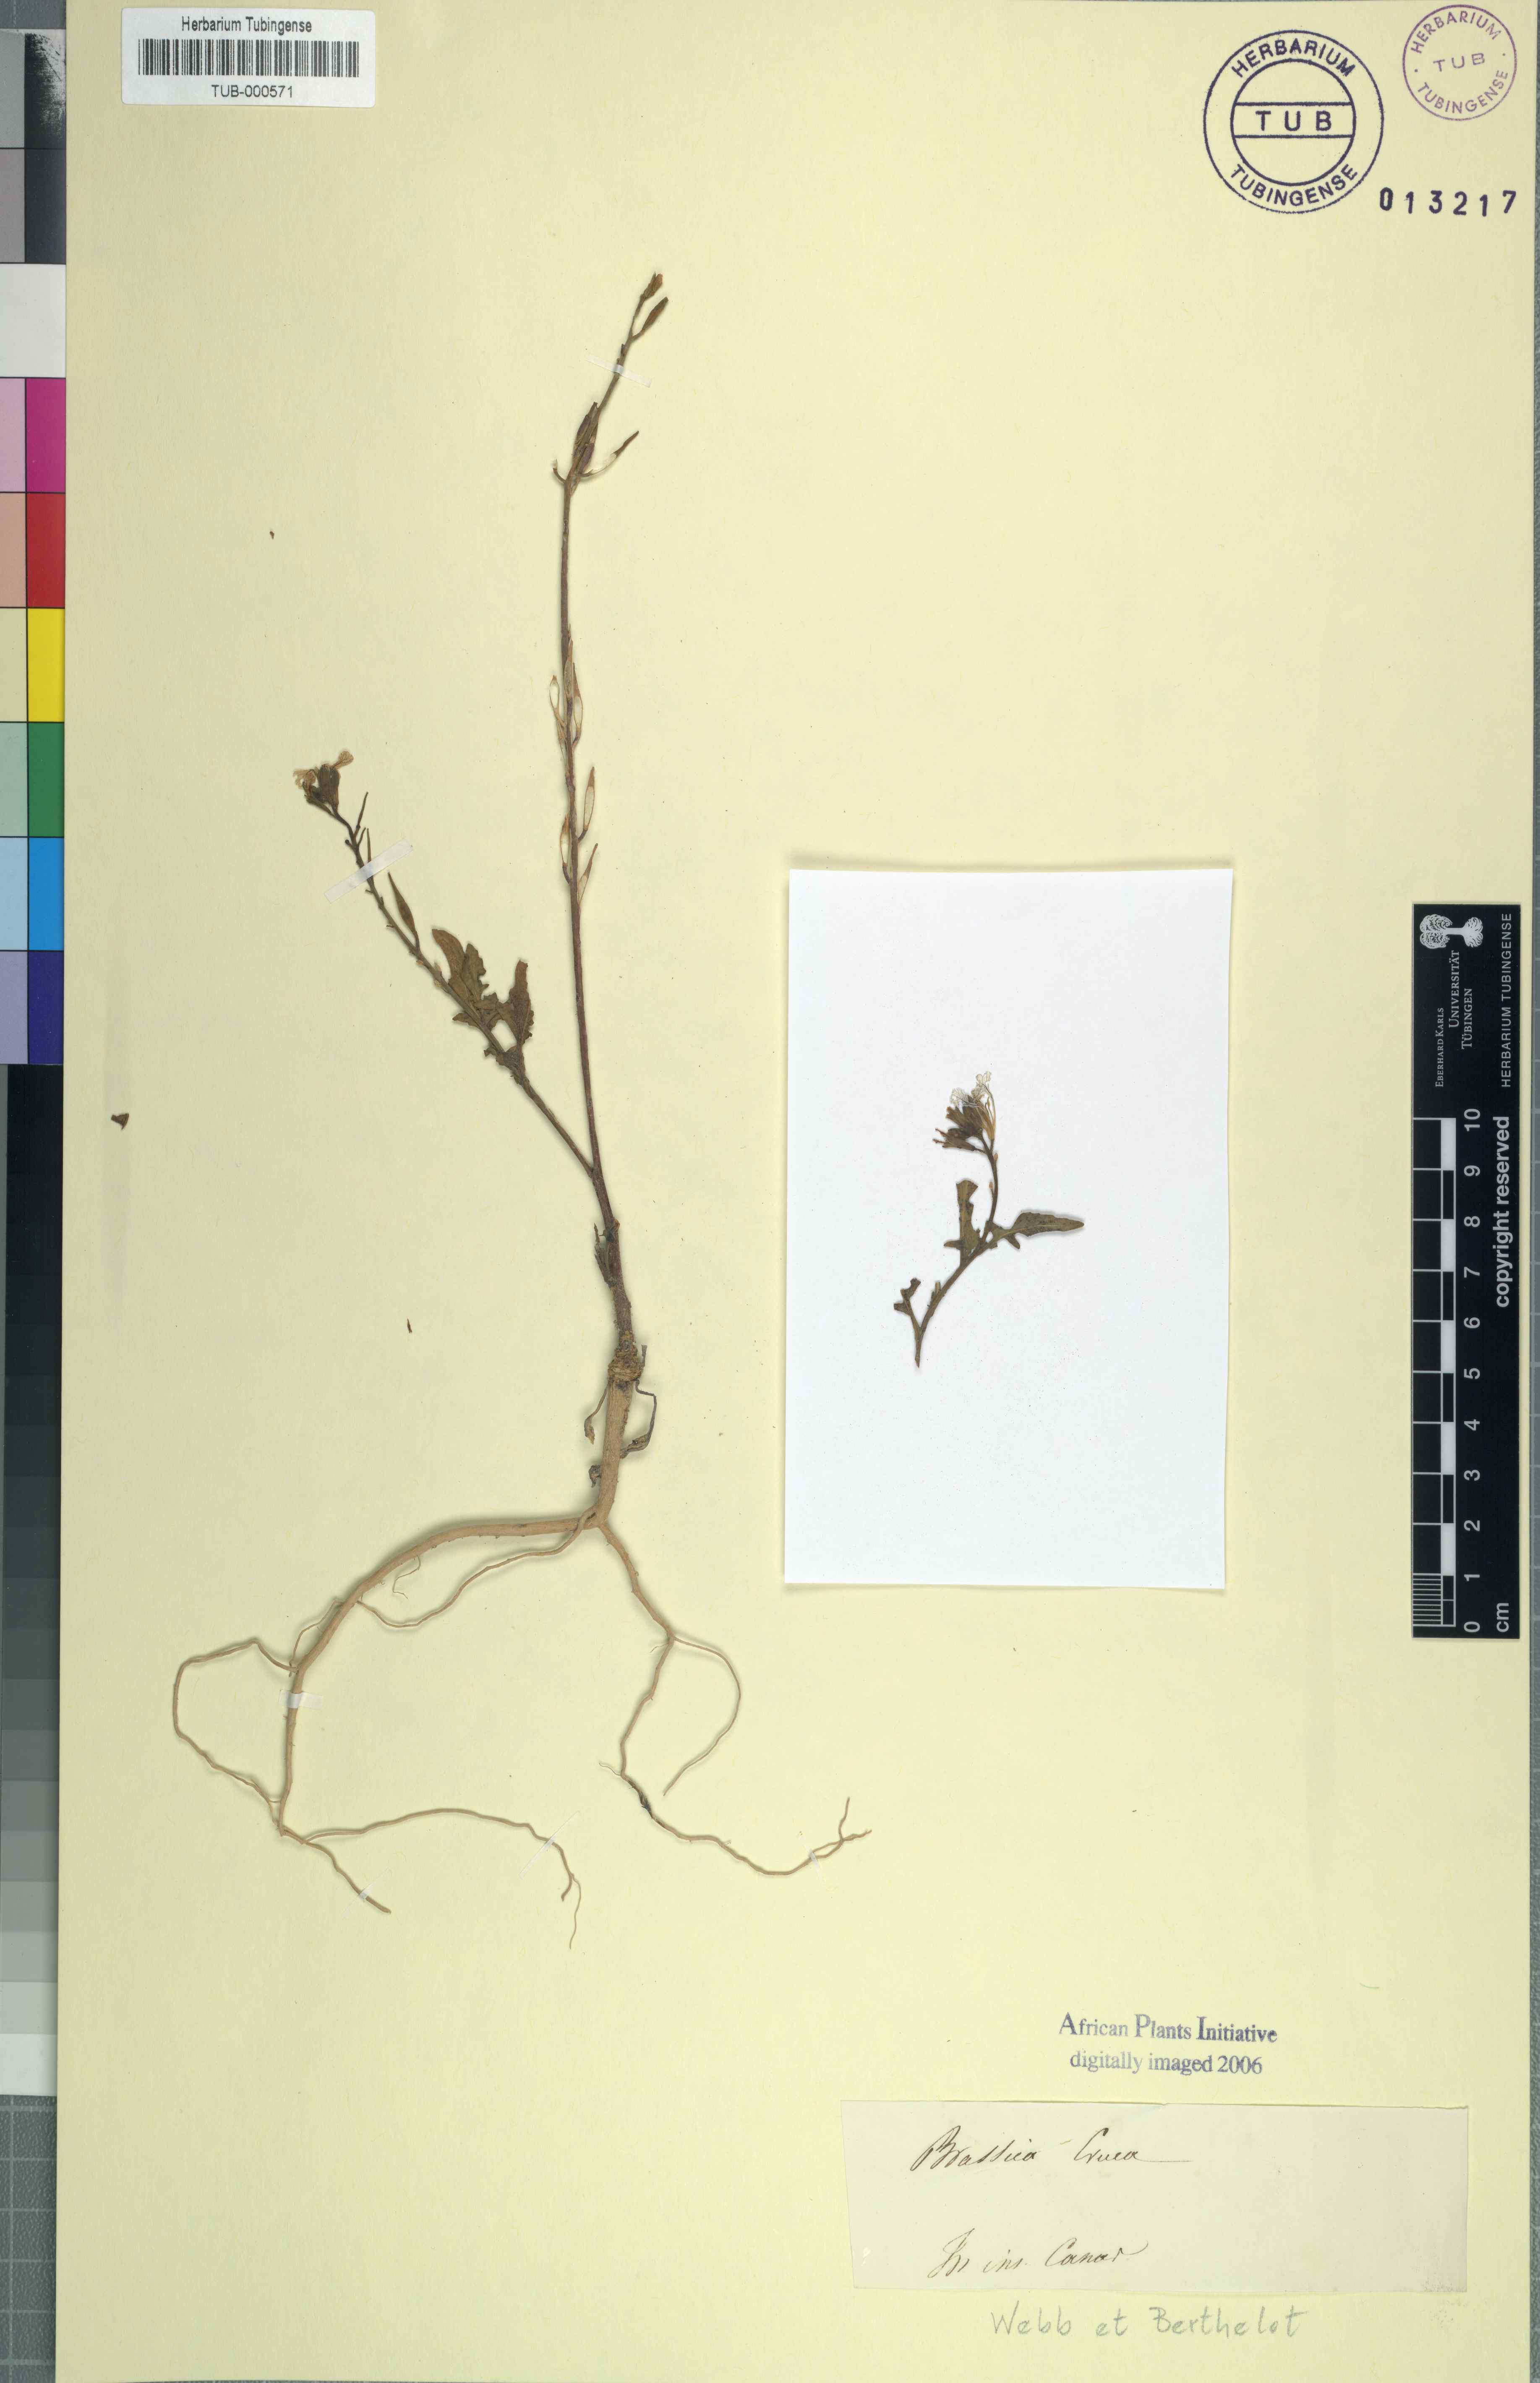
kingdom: Plantae
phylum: Tracheophyta
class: Magnoliopsida
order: Brassicales
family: Brassicaceae
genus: Eruca
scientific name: Eruca vesicaria
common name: Garden rocket
